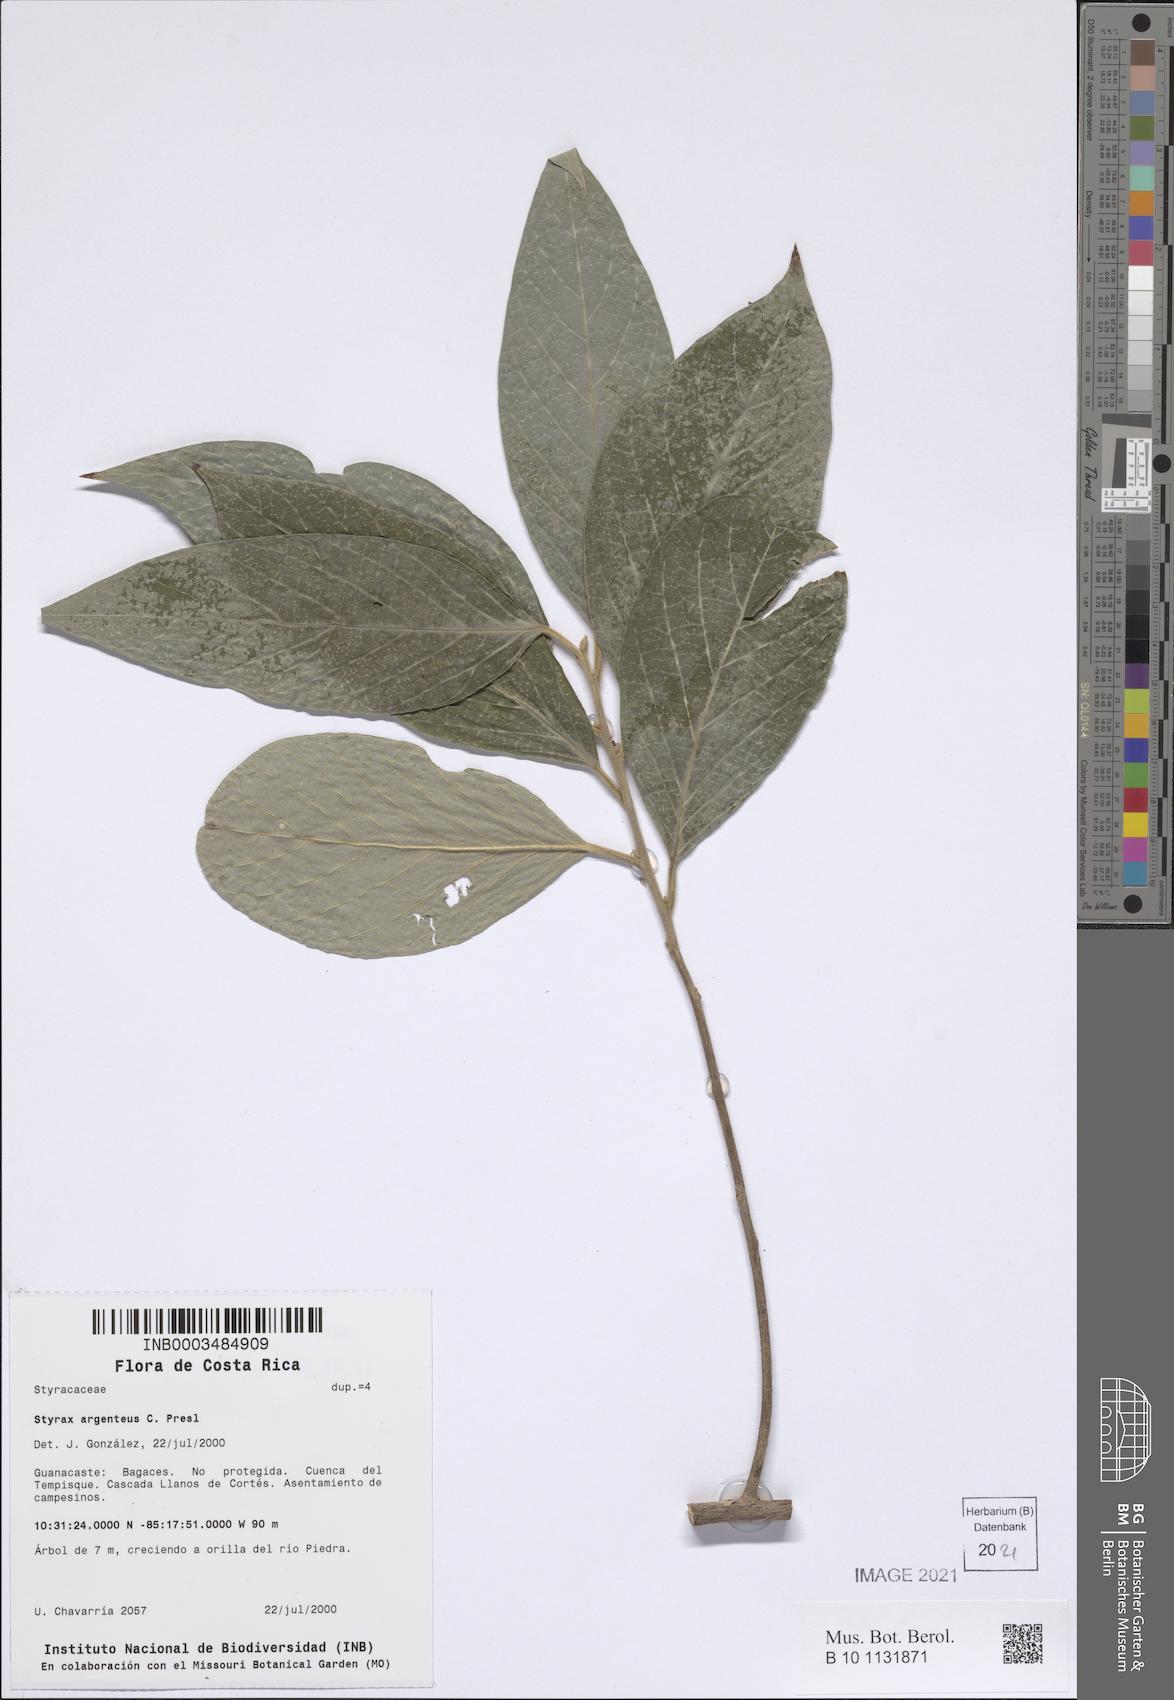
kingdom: Plantae
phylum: Tracheophyta
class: Magnoliopsida
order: Ericales
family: Styracaceae
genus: Styrax
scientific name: Styrax argenteus
